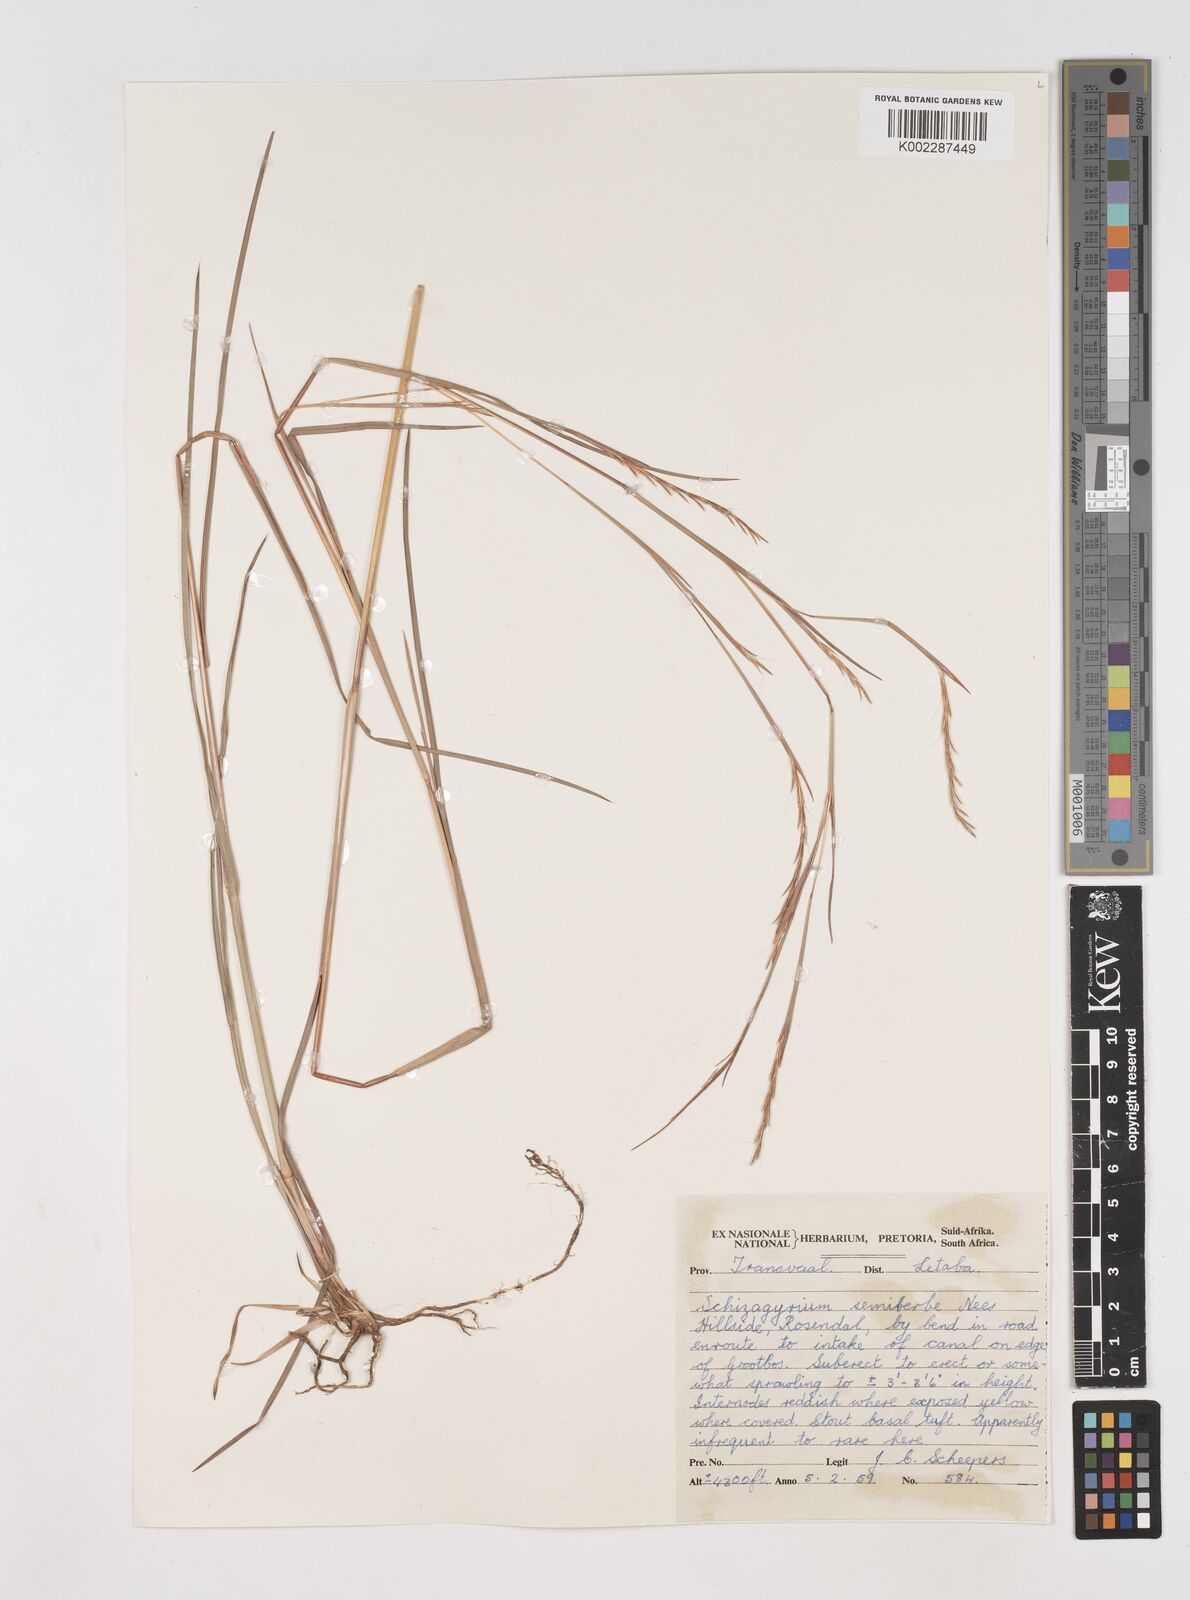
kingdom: Plantae
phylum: Tracheophyta
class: Liliopsida
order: Poales
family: Poaceae
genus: Schizachyrium
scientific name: Schizachyrium sanguineum
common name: Crimson bluestem
